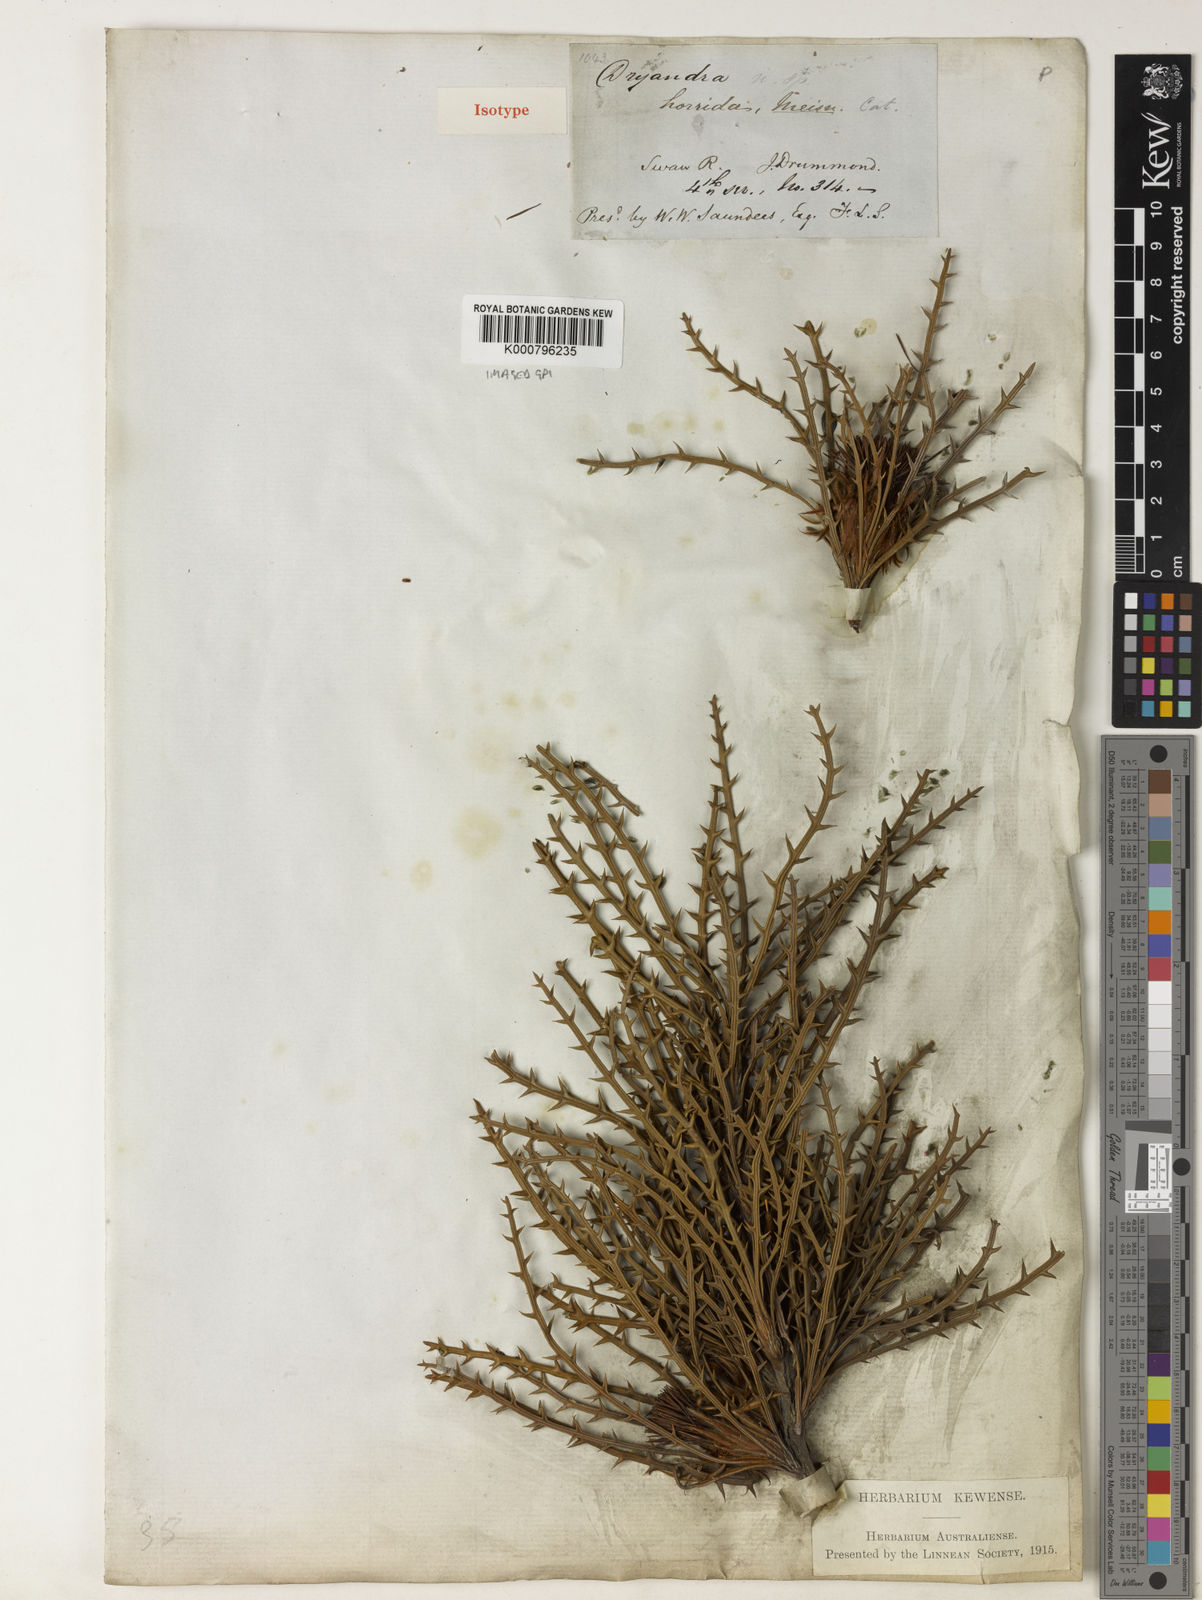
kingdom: Plantae
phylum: Tracheophyta
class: Magnoliopsida
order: Proteales
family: Proteaceae
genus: Banksia
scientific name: Banksia horrida
